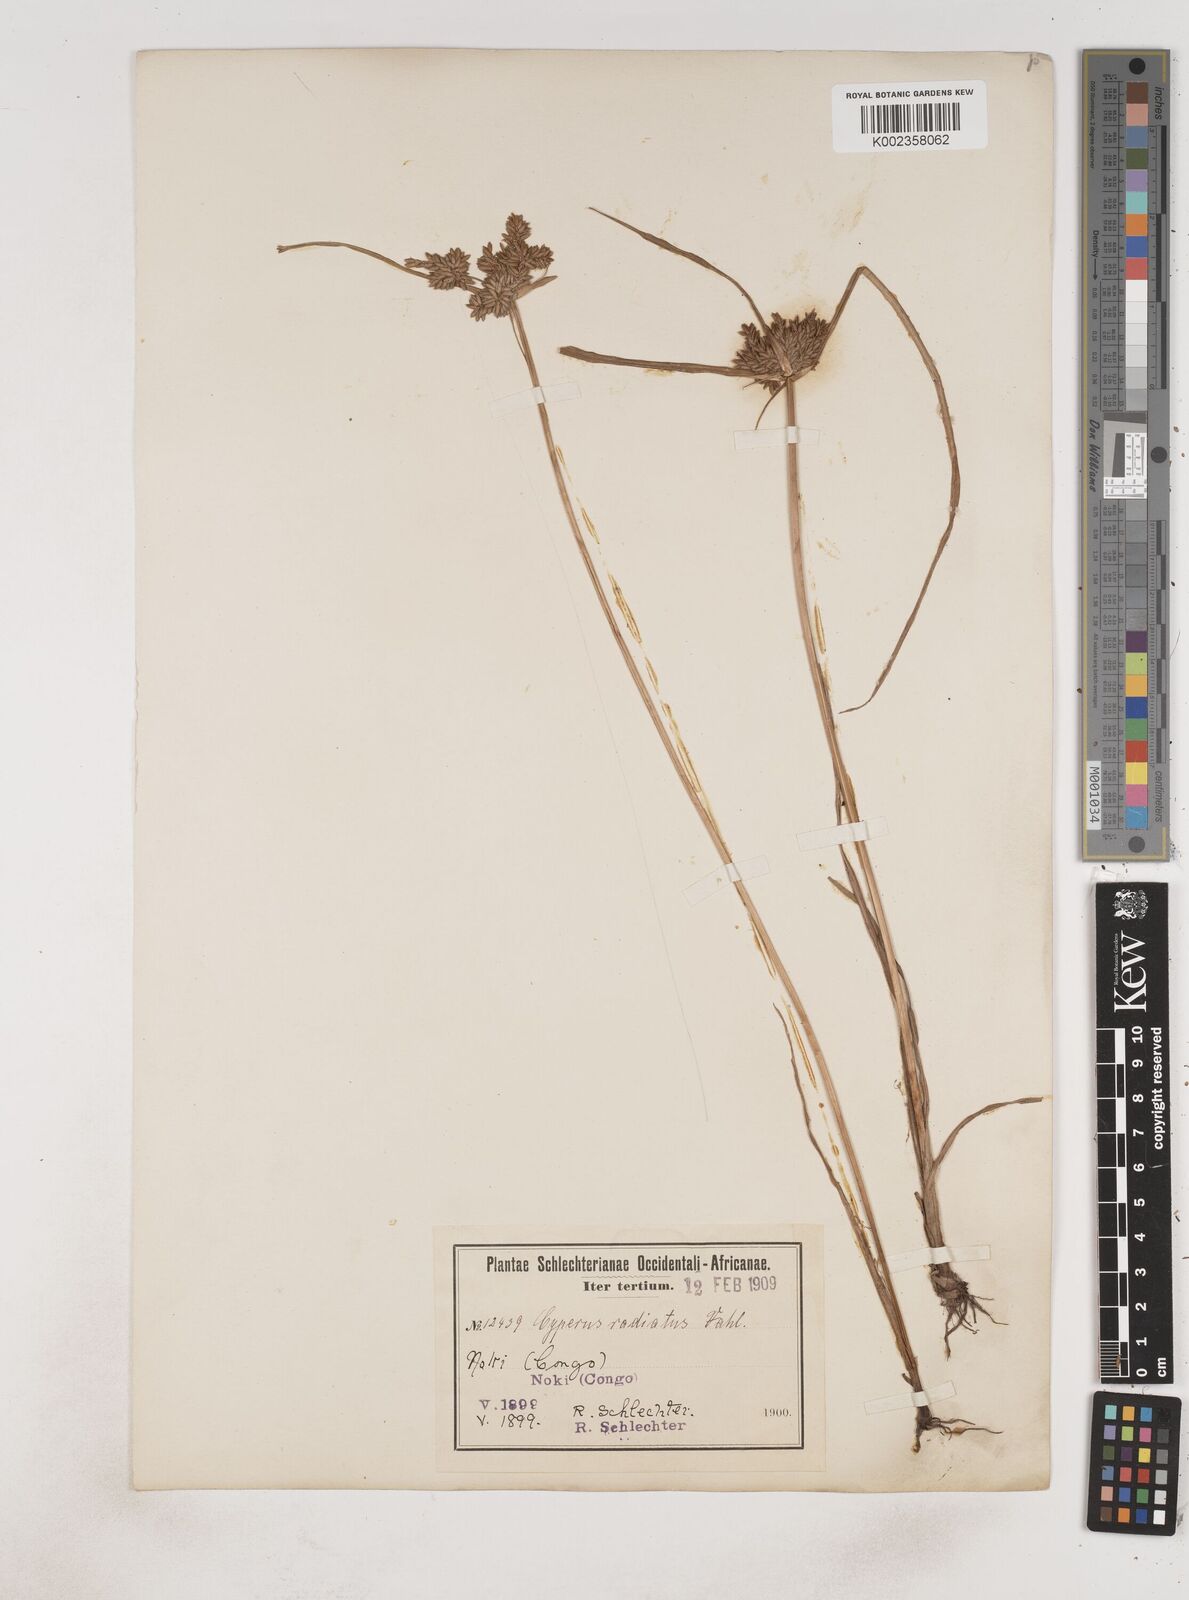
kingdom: Plantae
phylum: Tracheophyta
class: Liliopsida
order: Poales
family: Cyperaceae
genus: Cyperus
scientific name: Cyperus imbricatus
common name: Shingle flatsedge
